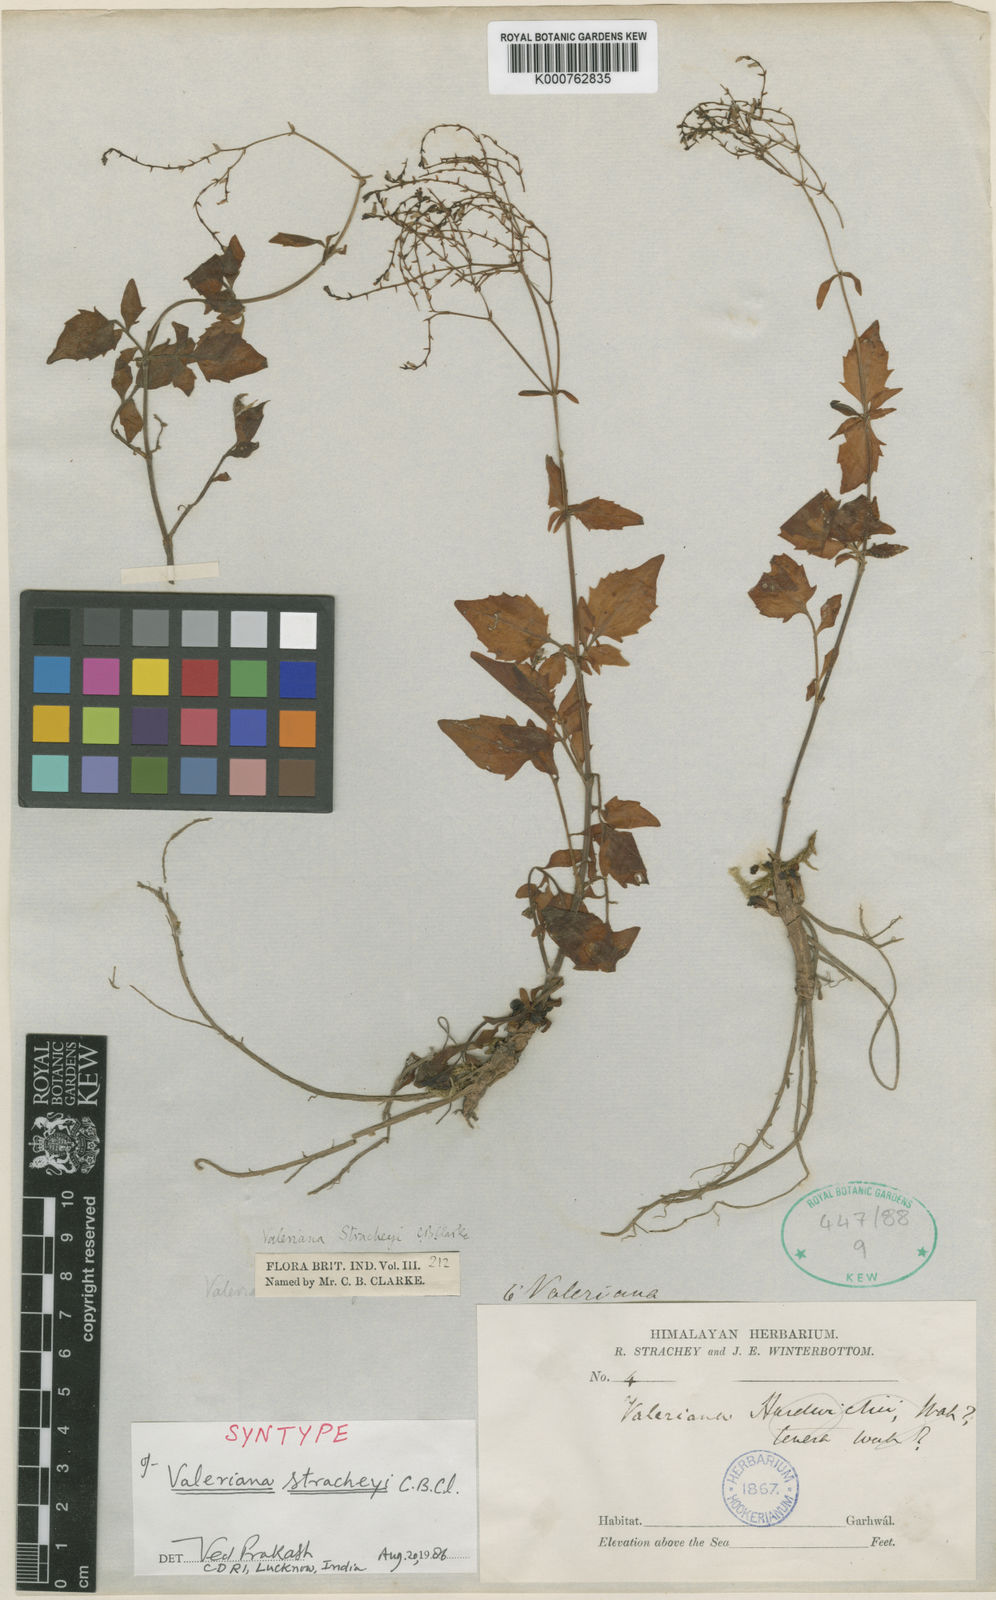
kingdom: Plantae
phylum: Tracheophyta
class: Magnoliopsida
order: Dipsacales
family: Caprifoliaceae
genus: Valeriana
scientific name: Valeriana stracheyi
